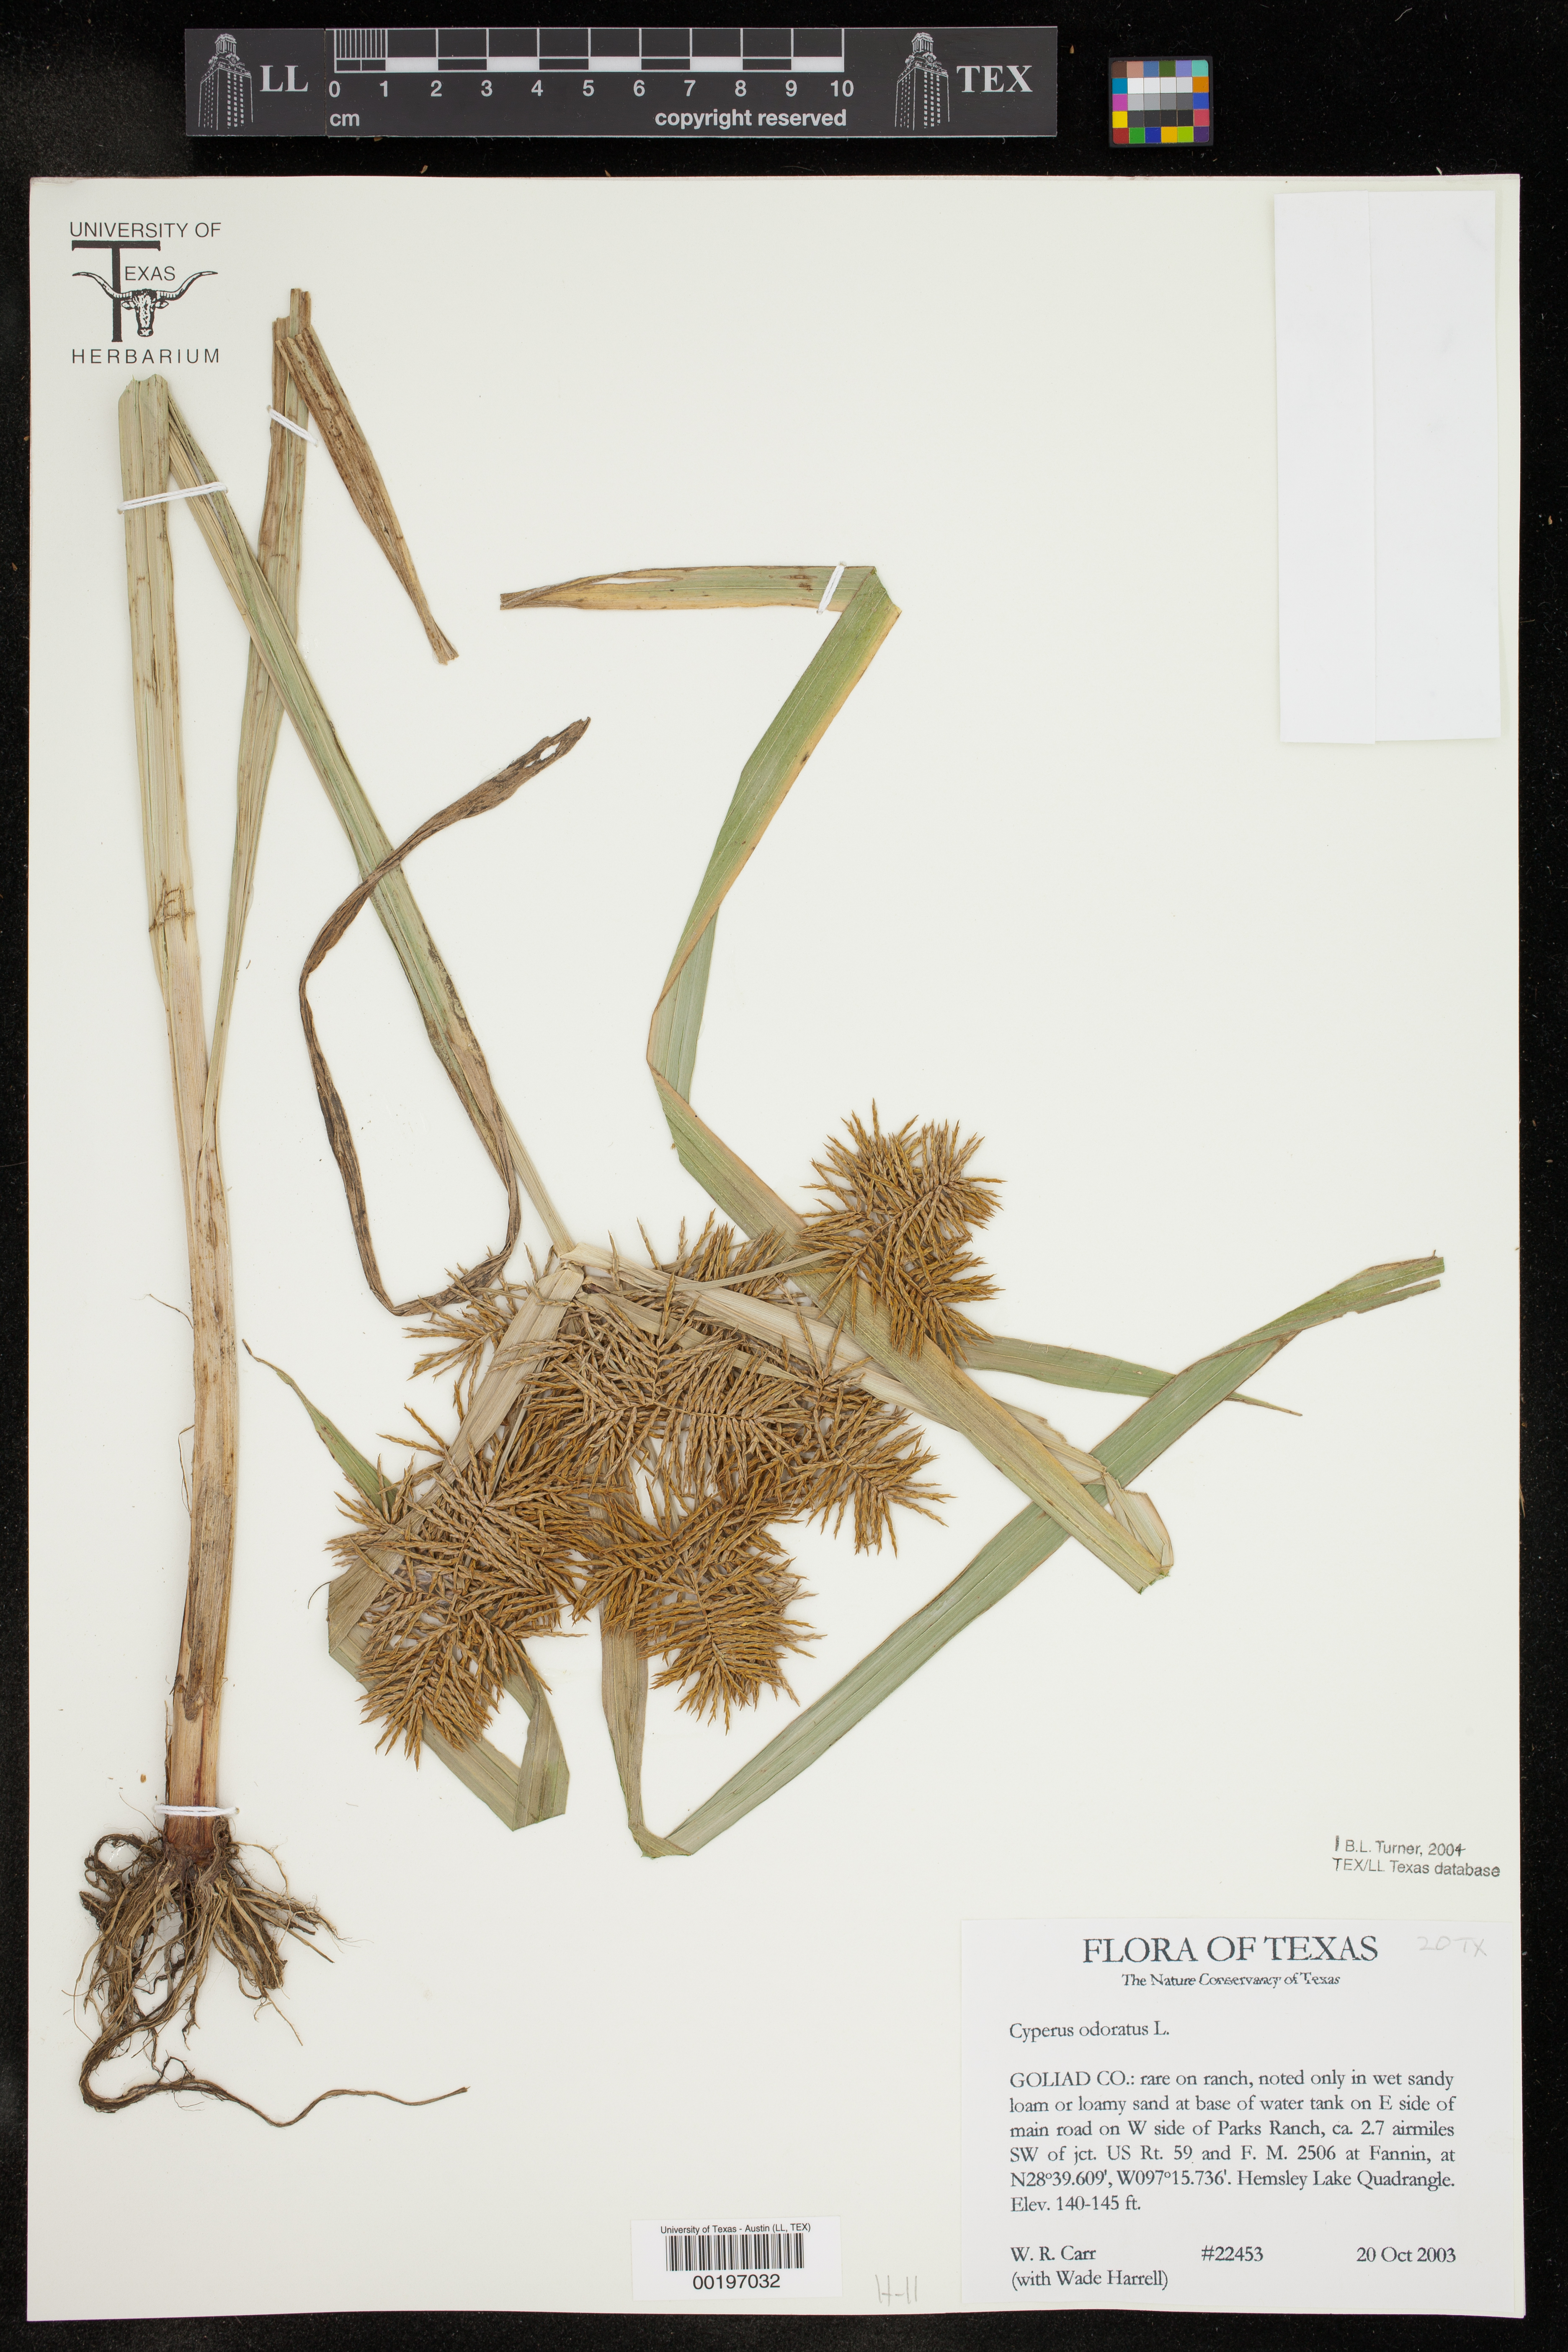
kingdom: Plantae
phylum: Tracheophyta
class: Liliopsida
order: Poales
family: Cyperaceae
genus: Cyperus
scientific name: Cyperus odoratus
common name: Fragrant flatsedge
